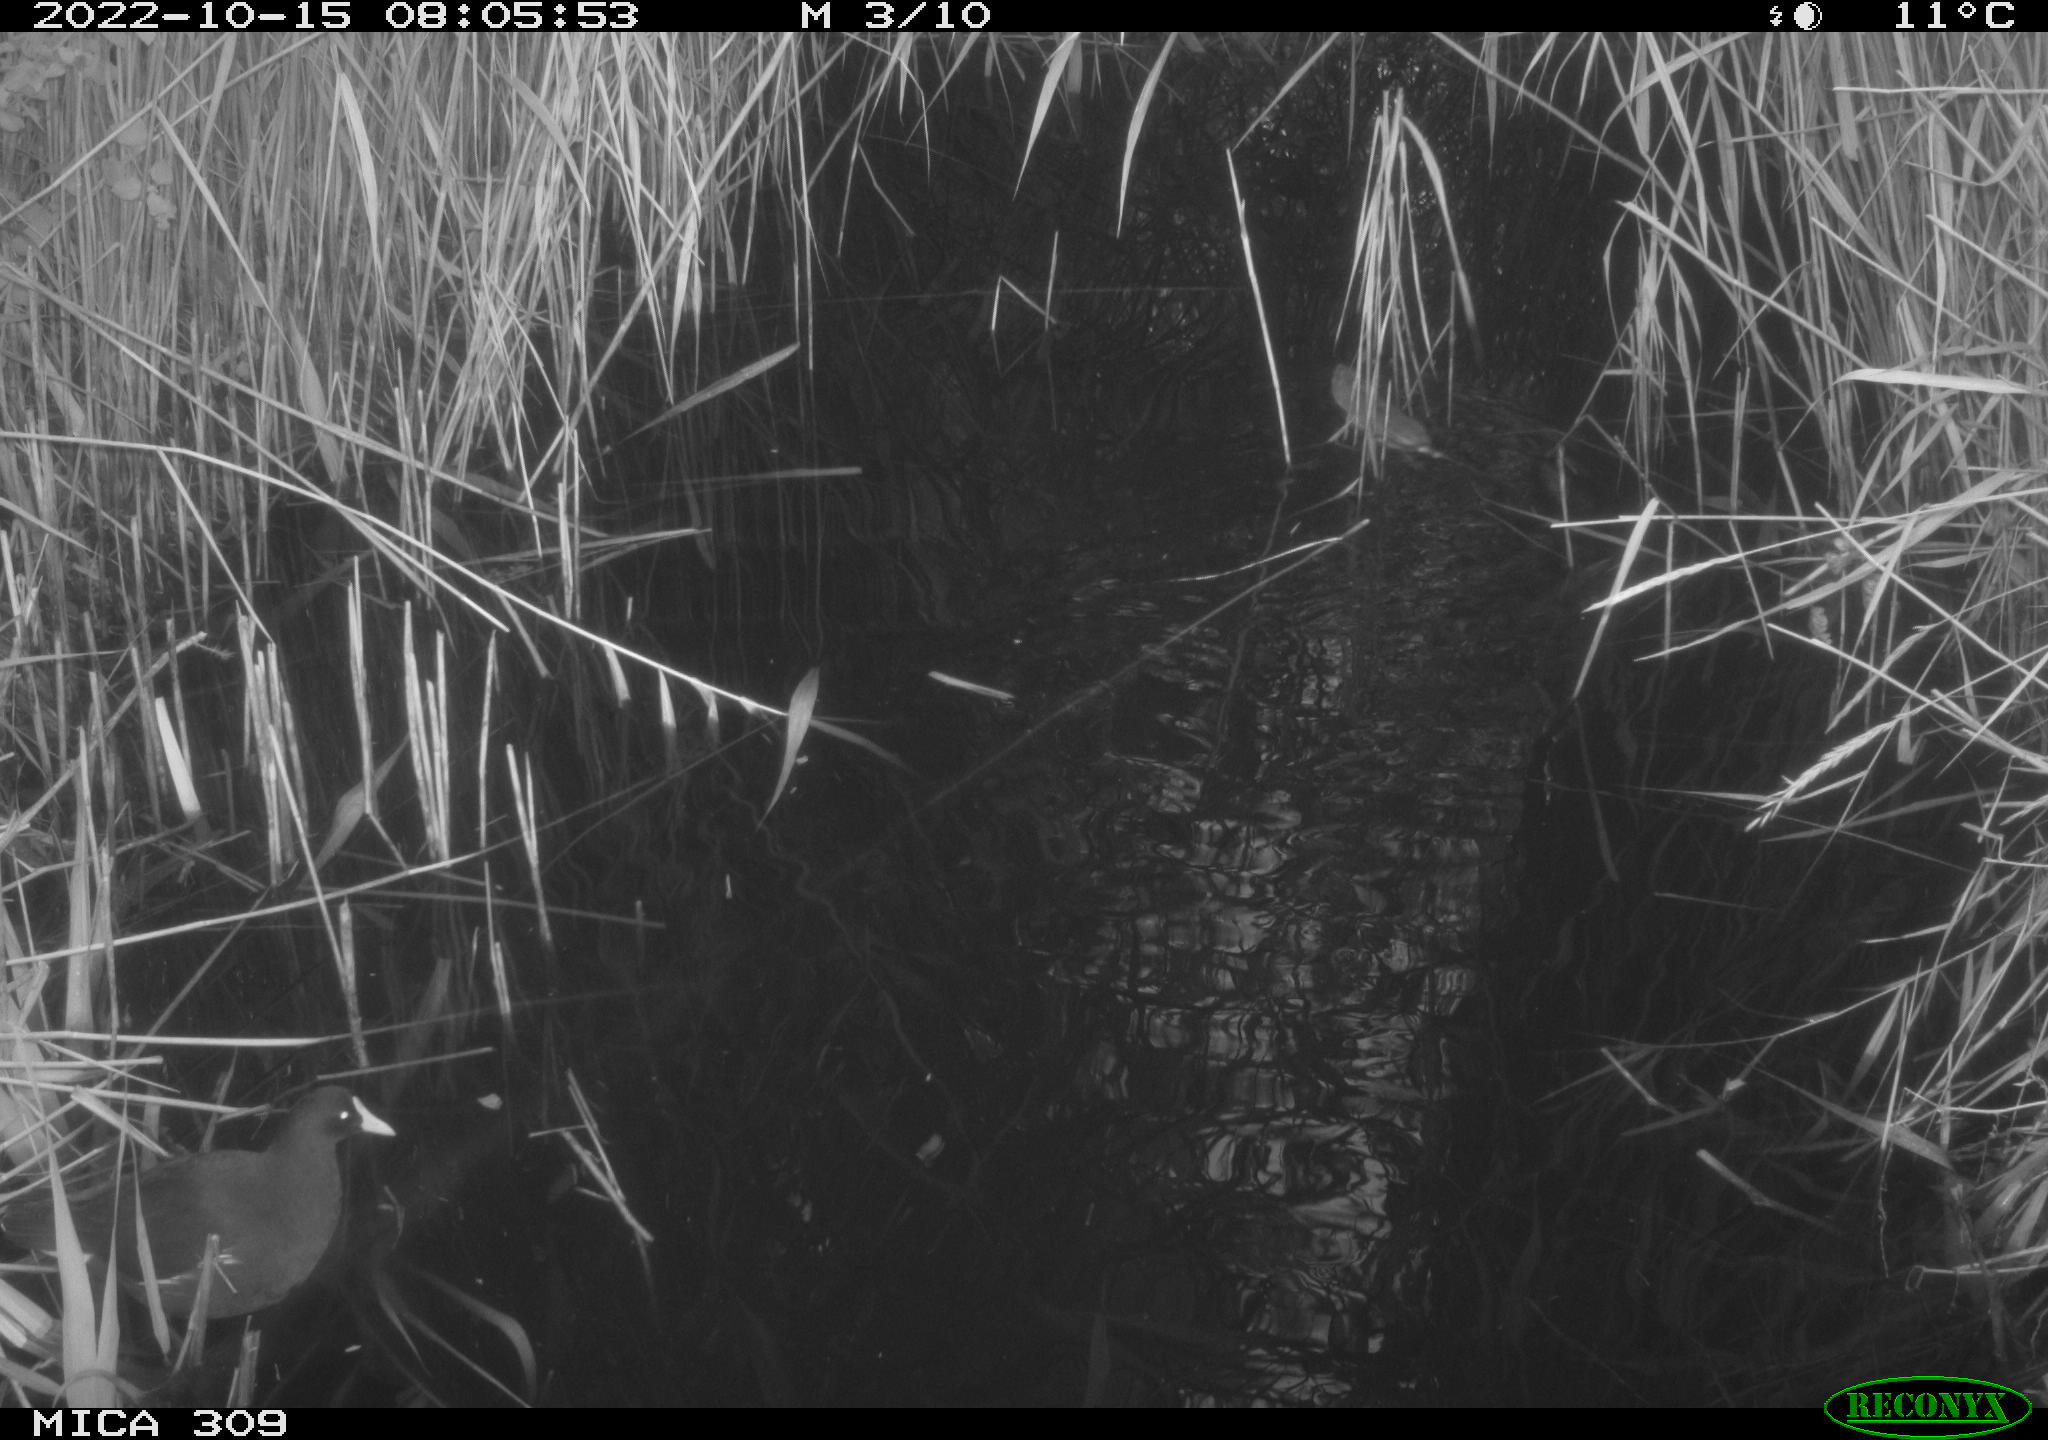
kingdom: Animalia
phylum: Chordata
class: Mammalia
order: Rodentia
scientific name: Rodentia
